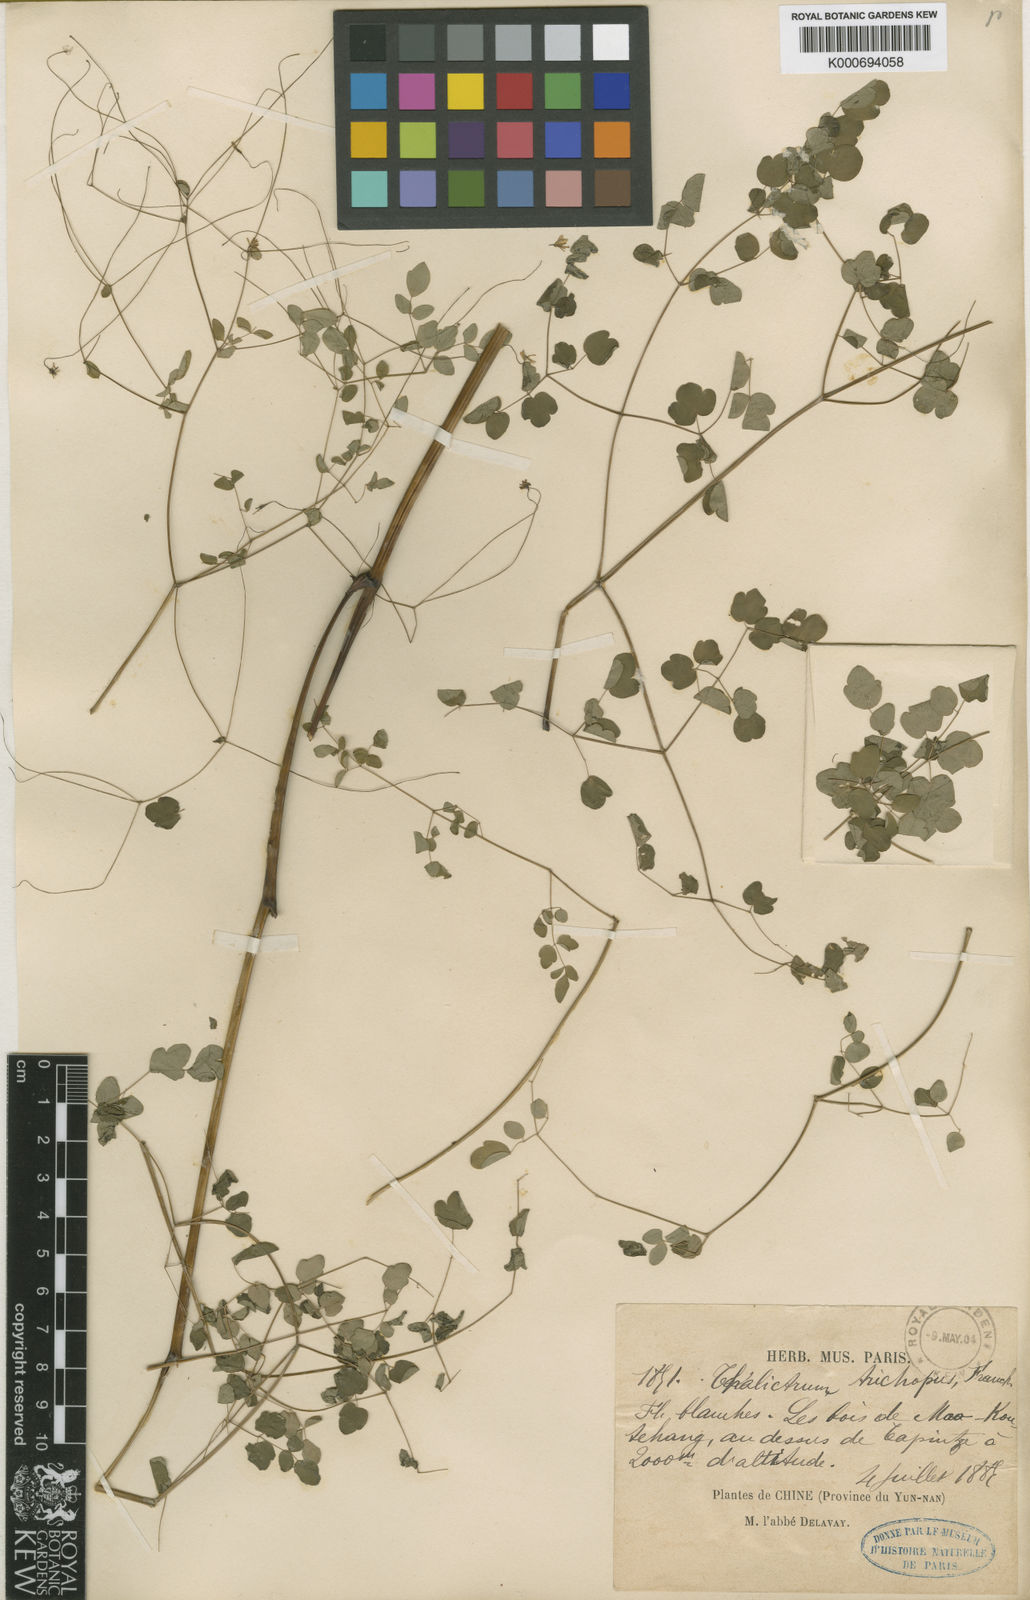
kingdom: Plantae
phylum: Tracheophyta
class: Magnoliopsida
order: Ranunculales
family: Ranunculaceae
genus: Thalictrum
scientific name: Thalictrum trichopus
